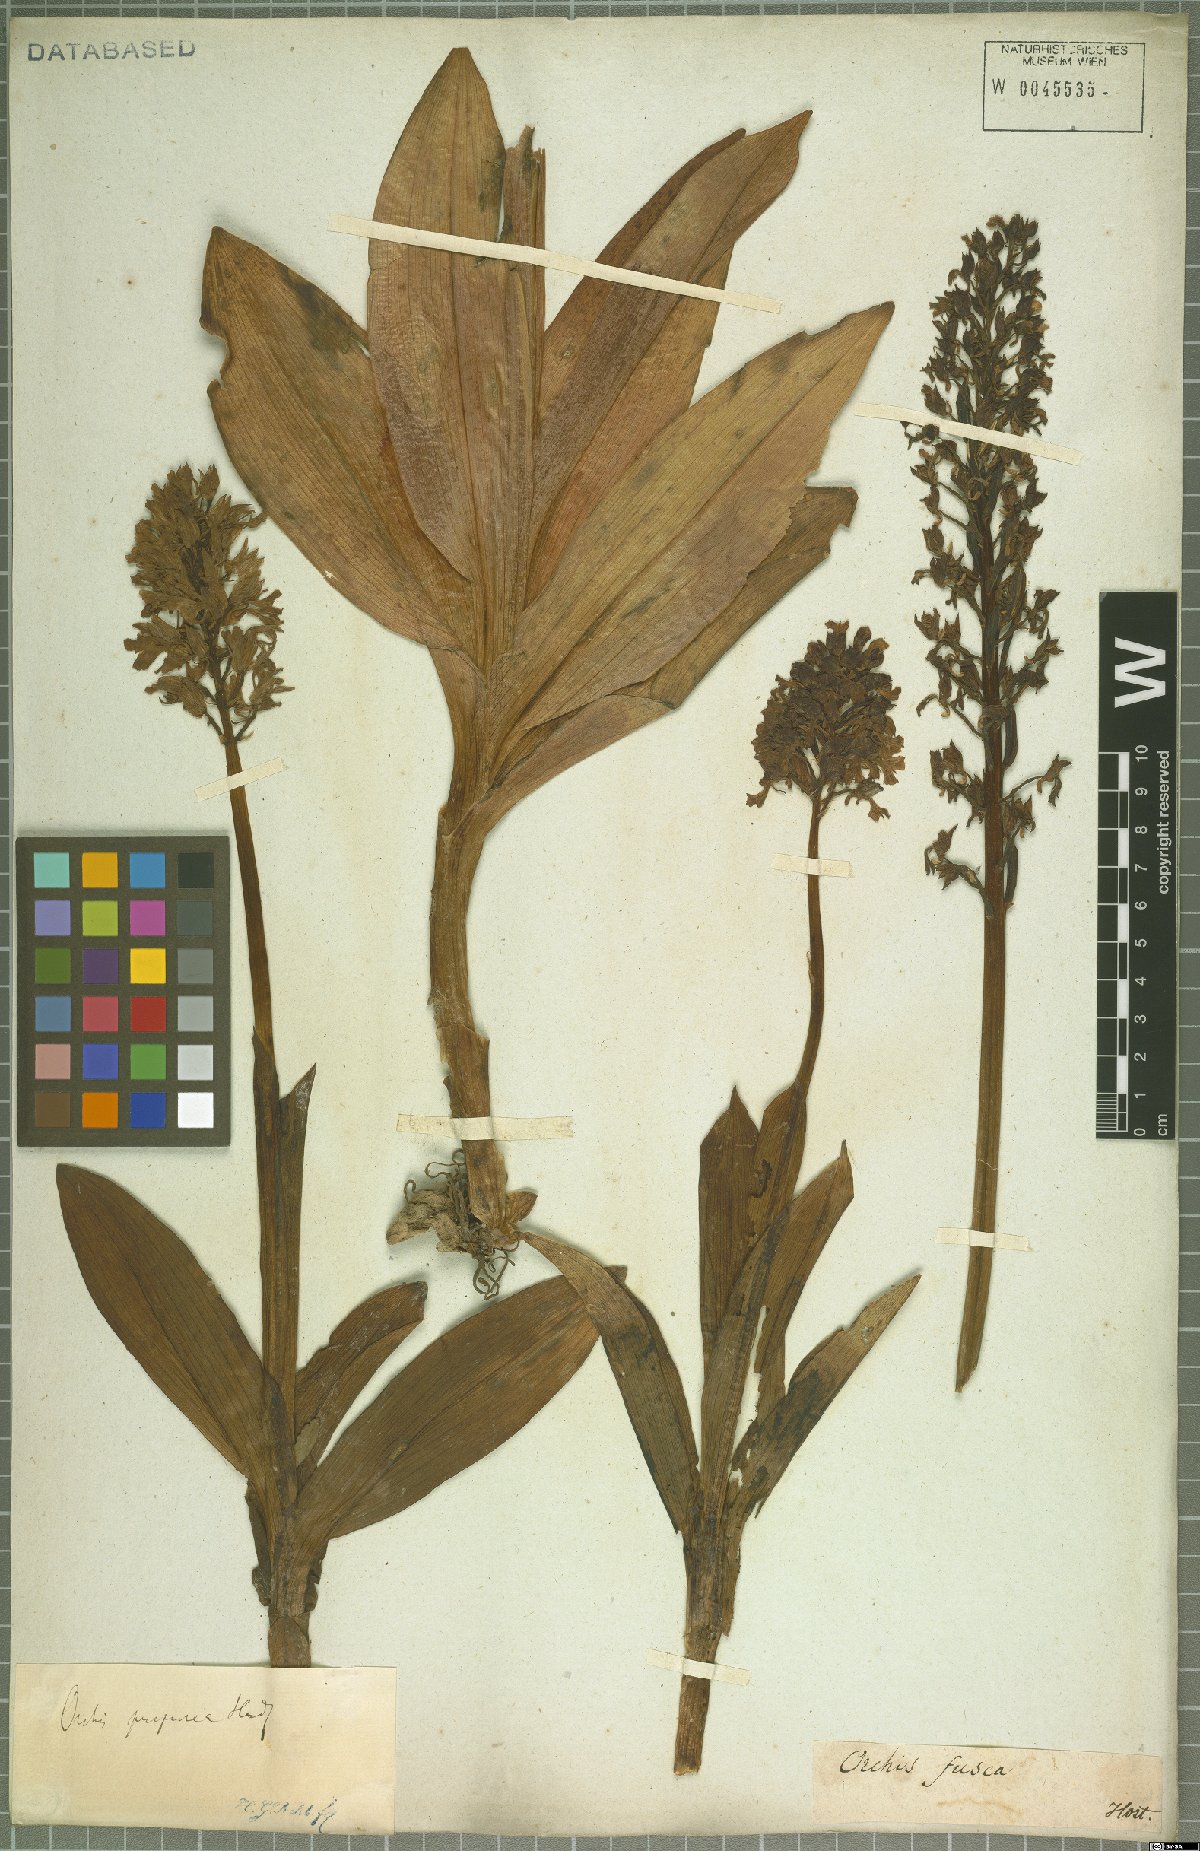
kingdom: Plantae
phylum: Tracheophyta
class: Liliopsida
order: Asparagales
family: Orchidaceae
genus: Orchis
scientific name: Orchis purpurea
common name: Lady orchid
